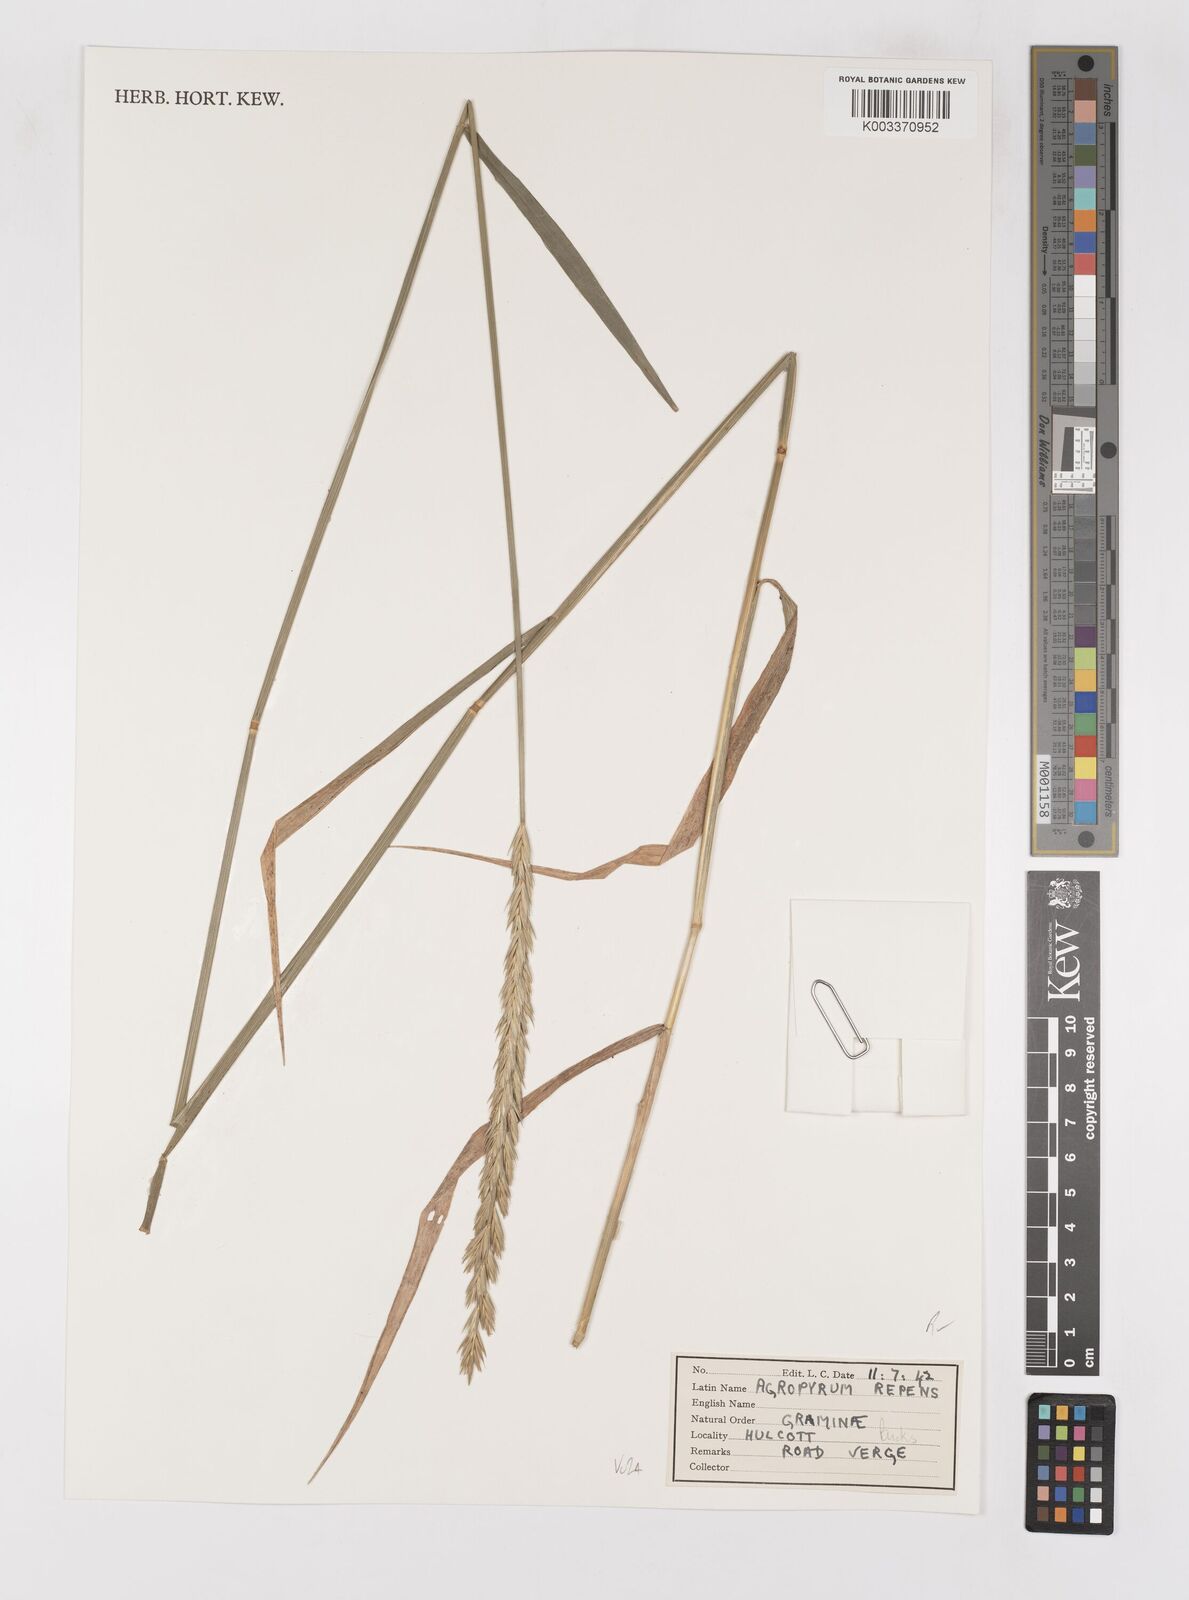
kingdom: Plantae
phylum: Tracheophyta
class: Liliopsida
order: Poales
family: Poaceae
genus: Elymus
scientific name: Elymus repens
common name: Quackgrass
